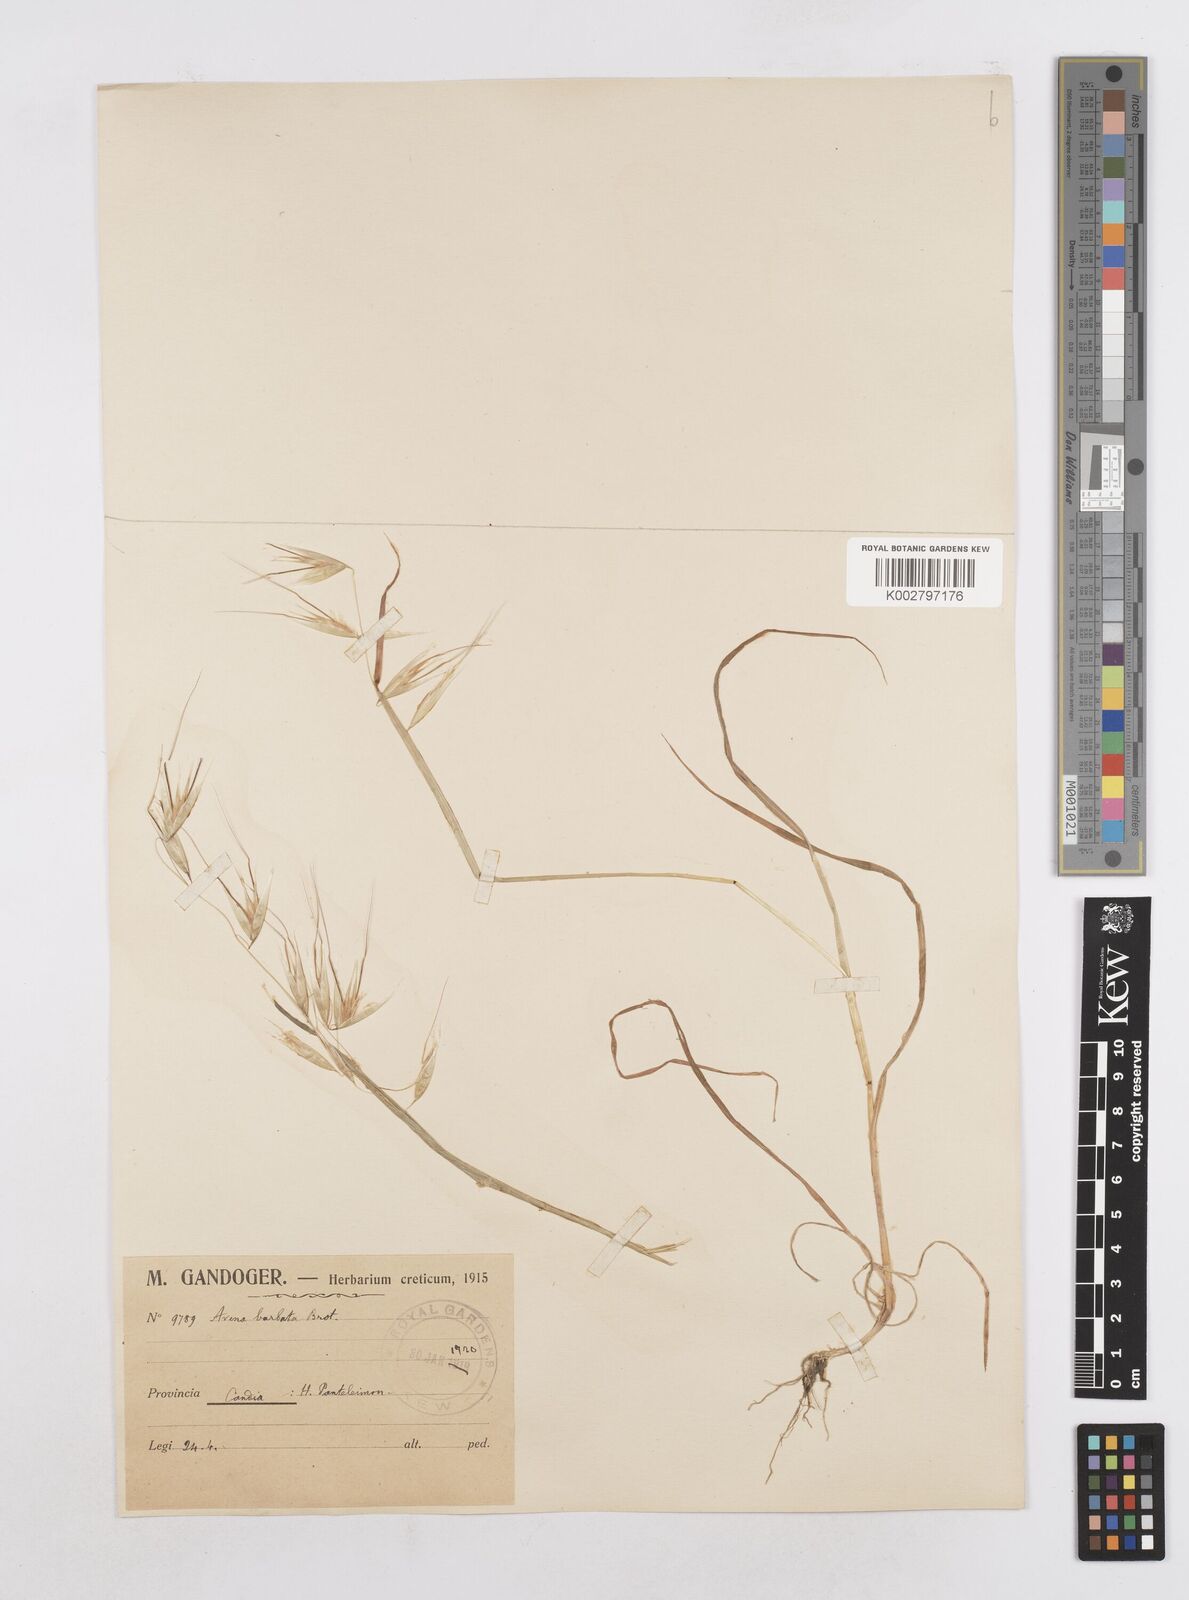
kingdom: Plantae
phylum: Tracheophyta
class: Liliopsida
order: Poales
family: Poaceae
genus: Avena
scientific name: Avena
